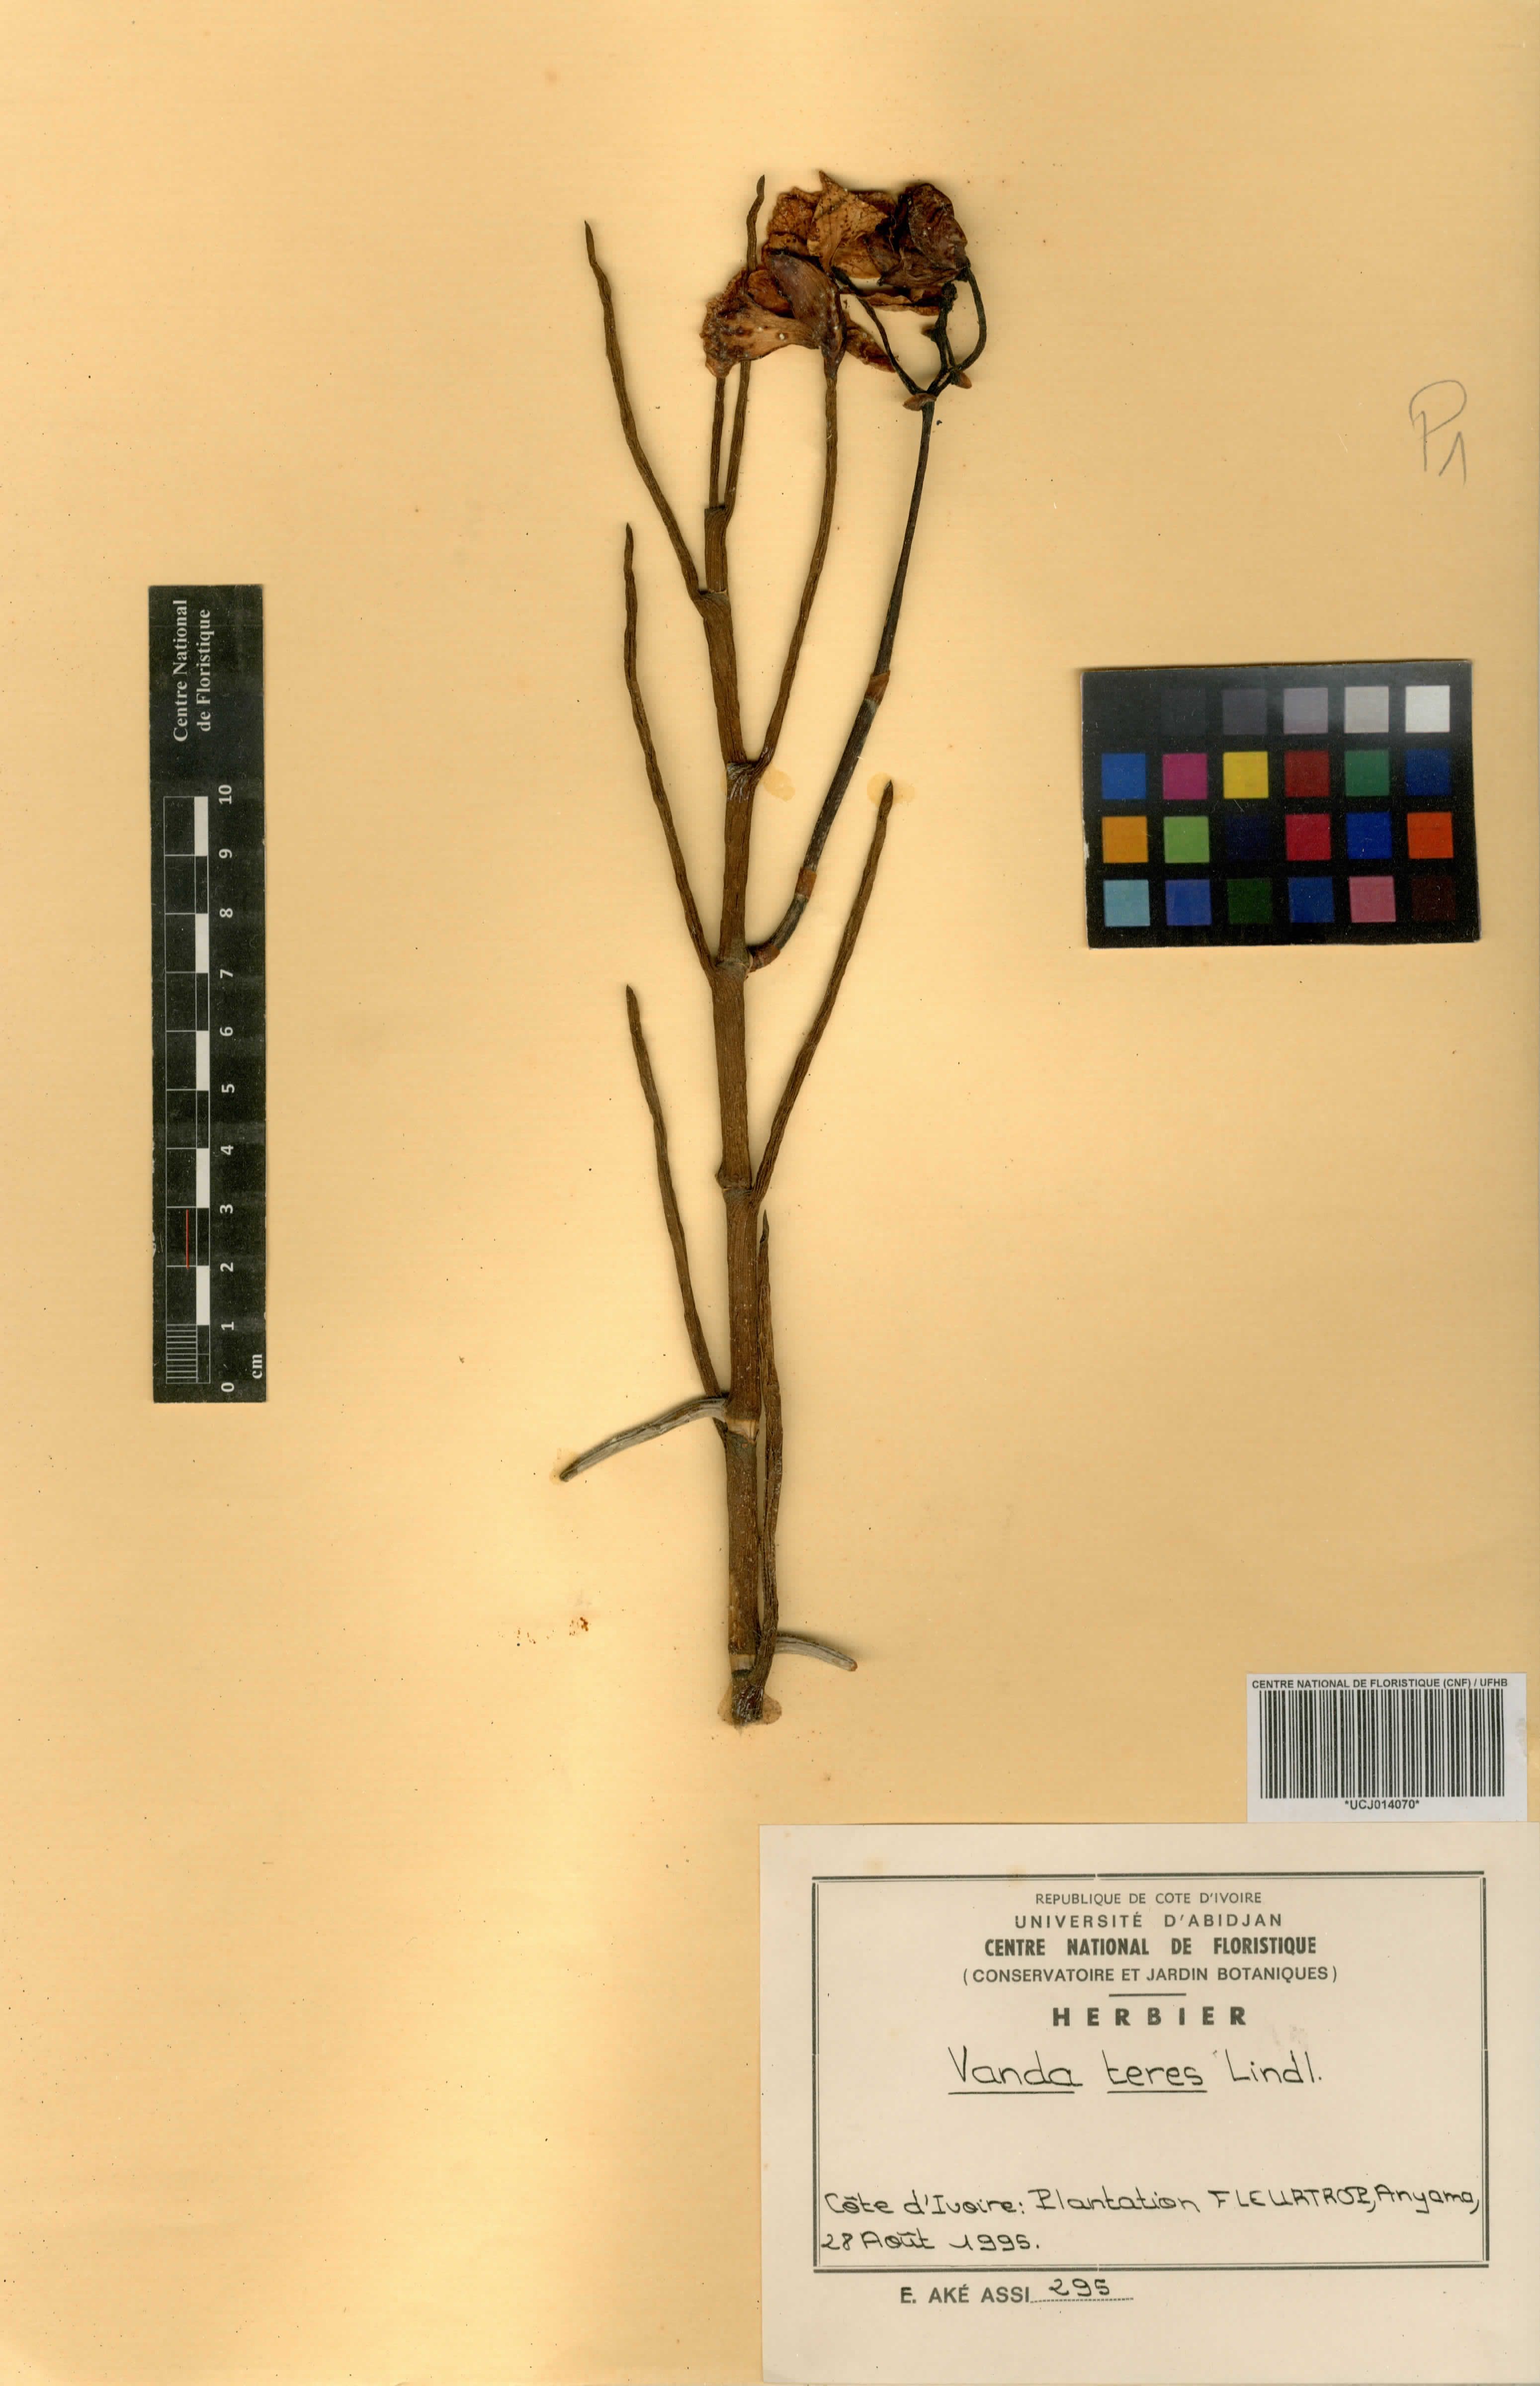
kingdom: Plantae
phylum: Tracheophyta
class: Liliopsida
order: Asparagales
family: Orchidaceae
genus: Papilionanthe
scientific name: Papilionanthe teres
